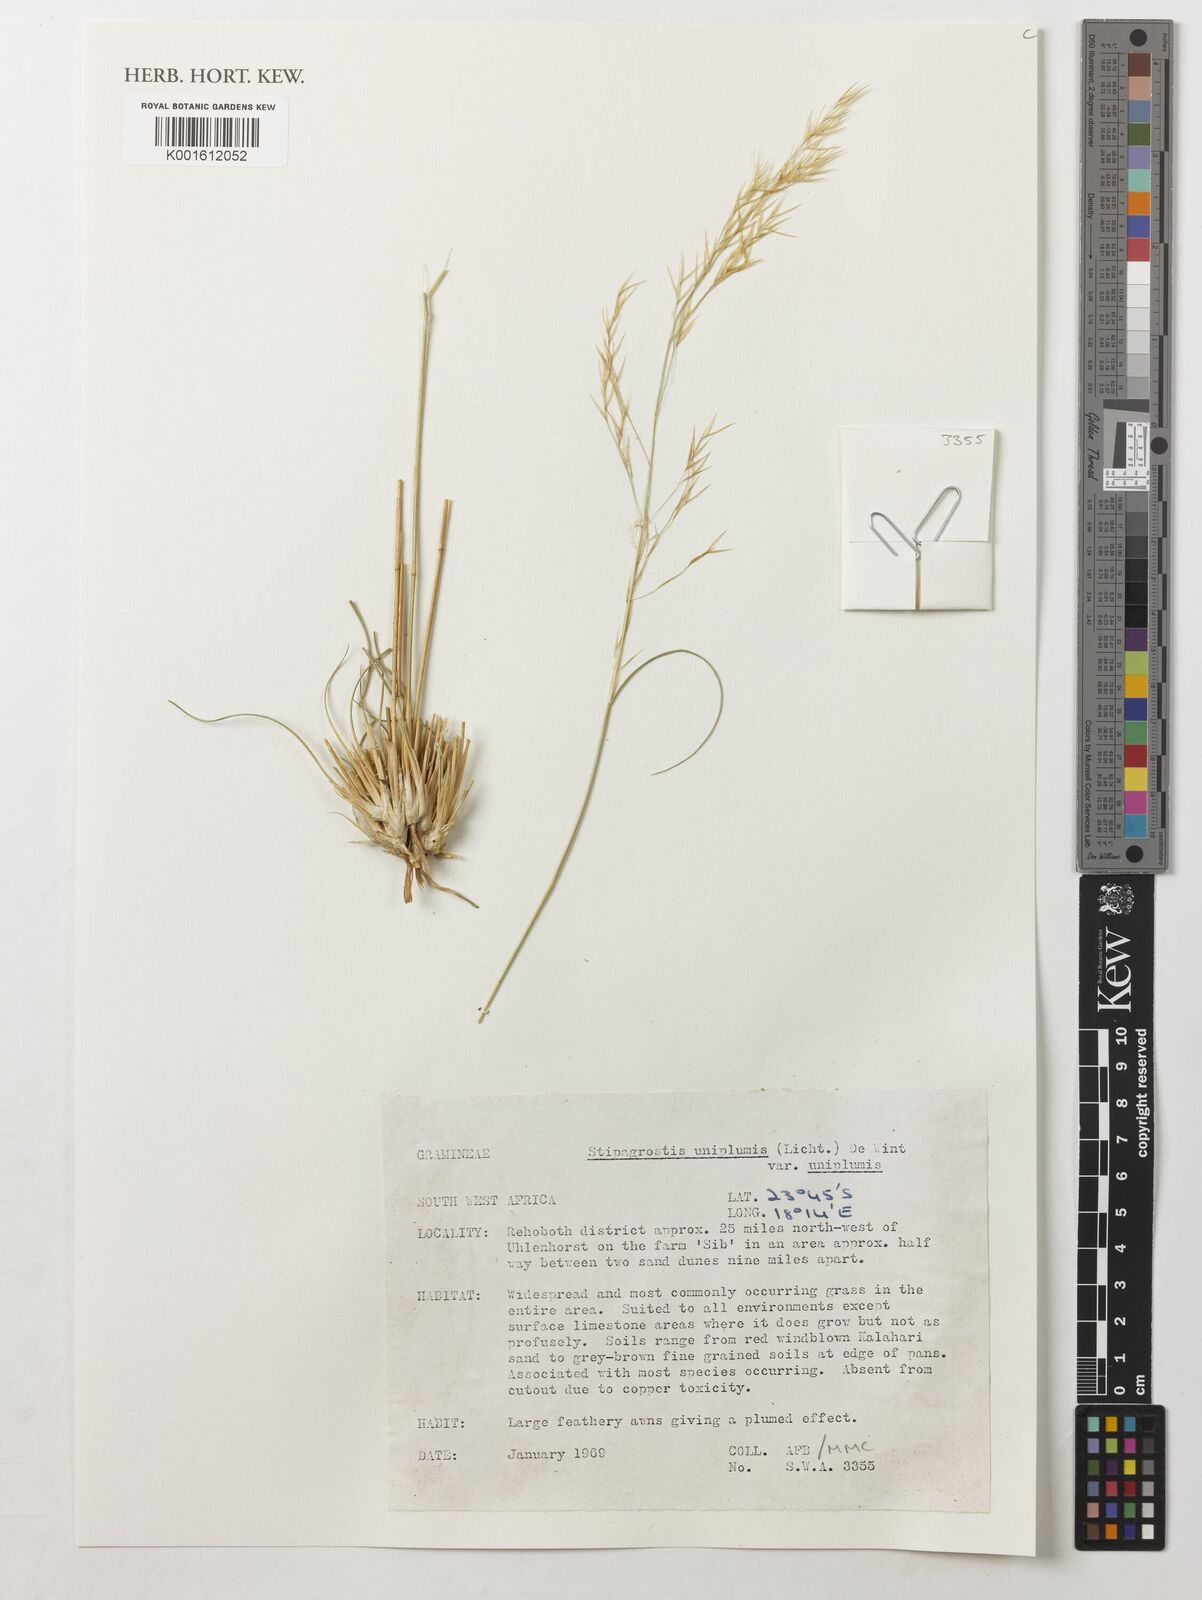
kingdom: Plantae
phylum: Tracheophyta
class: Liliopsida
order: Poales
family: Poaceae
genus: Stipagrostis
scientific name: Stipagrostis uniplumis
